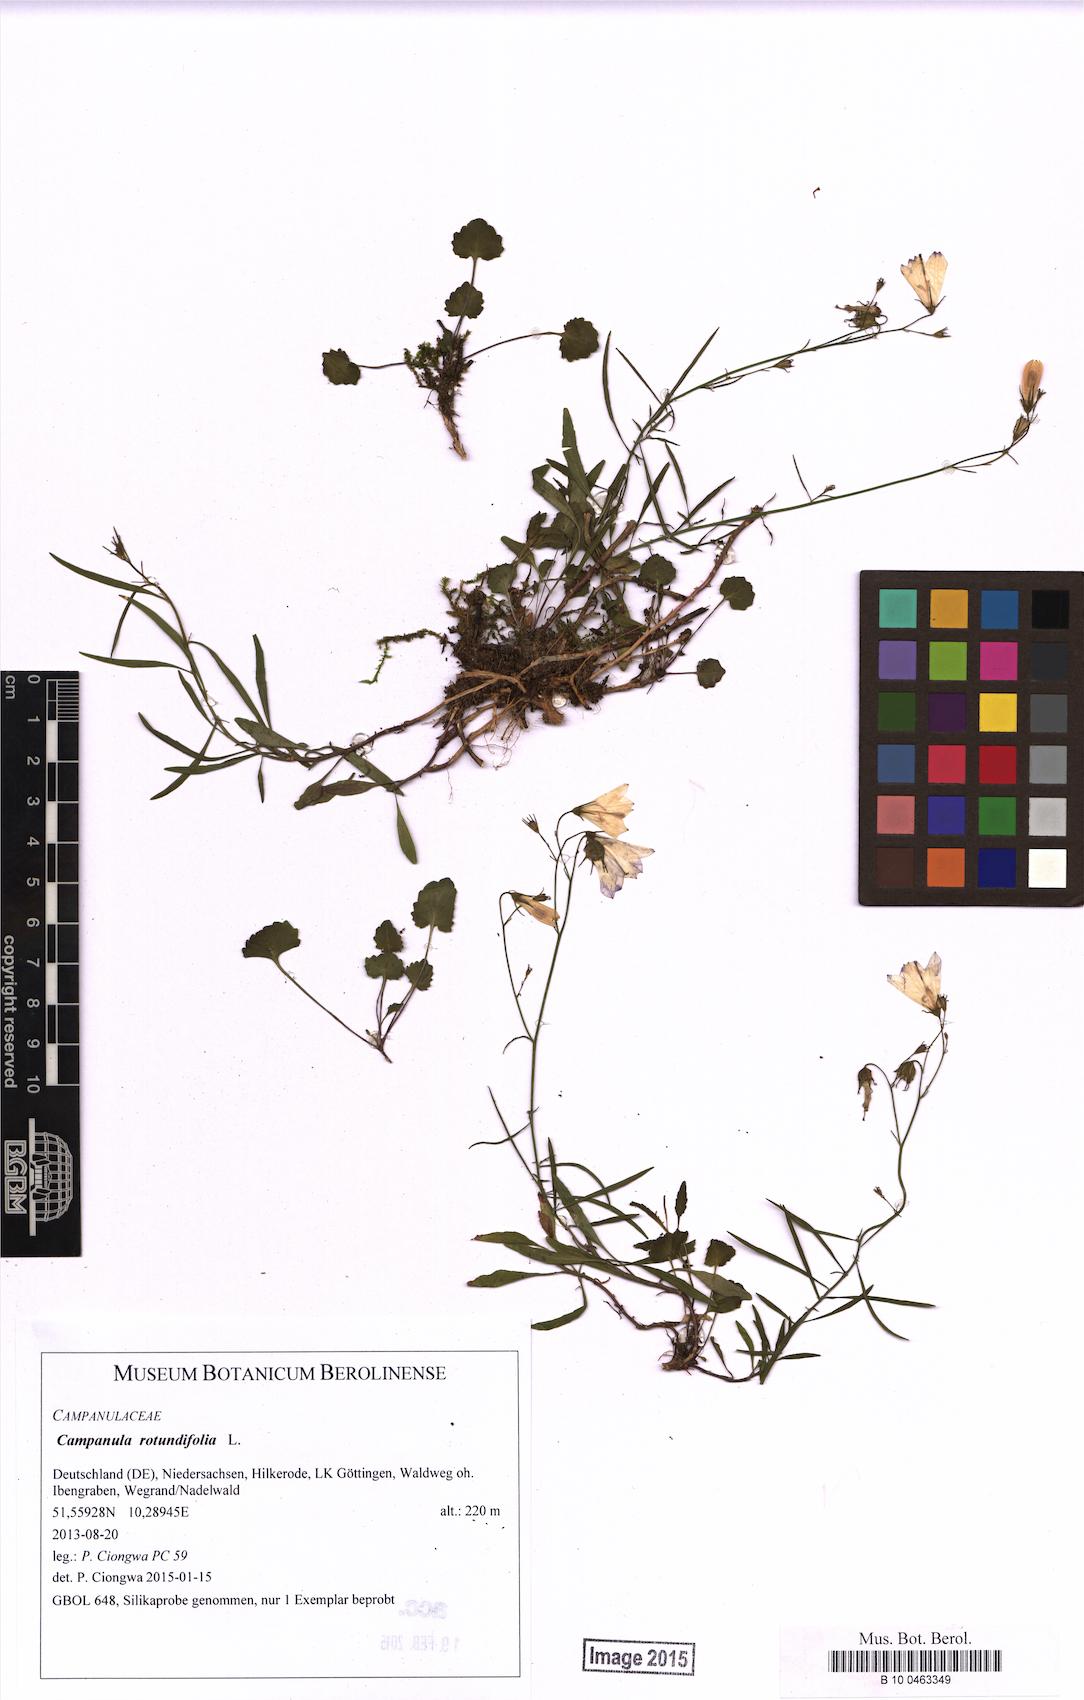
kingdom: Plantae
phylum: Tracheophyta
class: Magnoliopsida
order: Asterales
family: Campanulaceae
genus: Campanula
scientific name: Campanula rotundifolia
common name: Harebell
